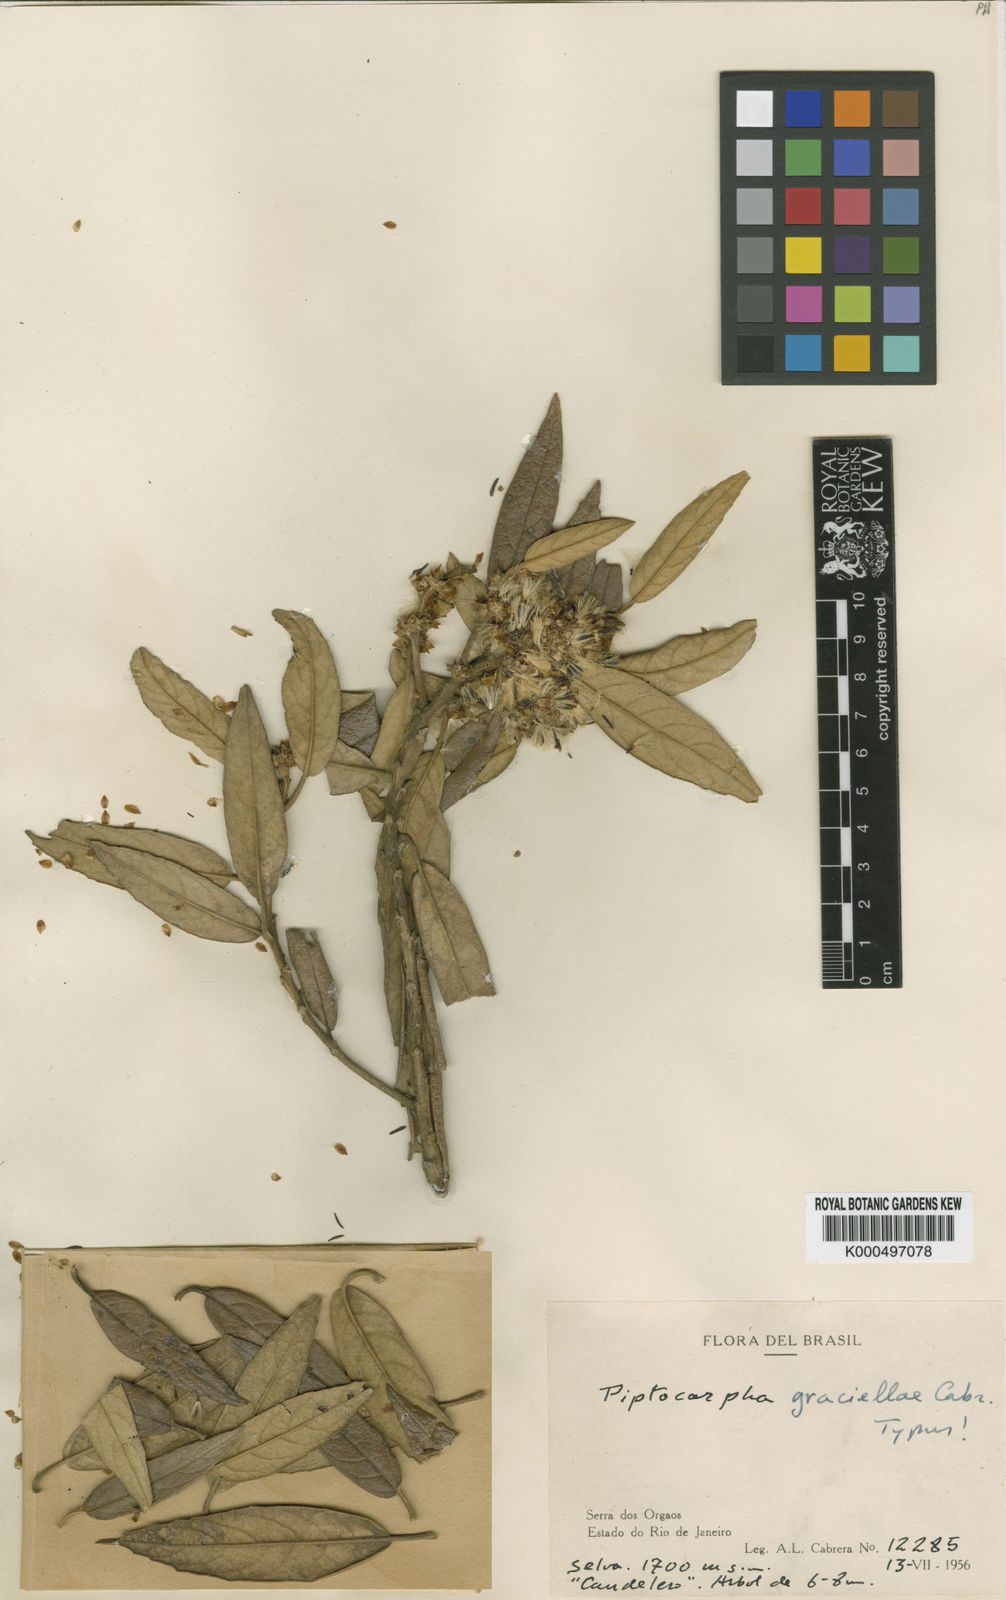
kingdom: Plantae
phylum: Tracheophyta
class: Magnoliopsida
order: Asterales
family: Asteraceae
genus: Piptocarpha
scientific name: Piptocarpha axillaris
